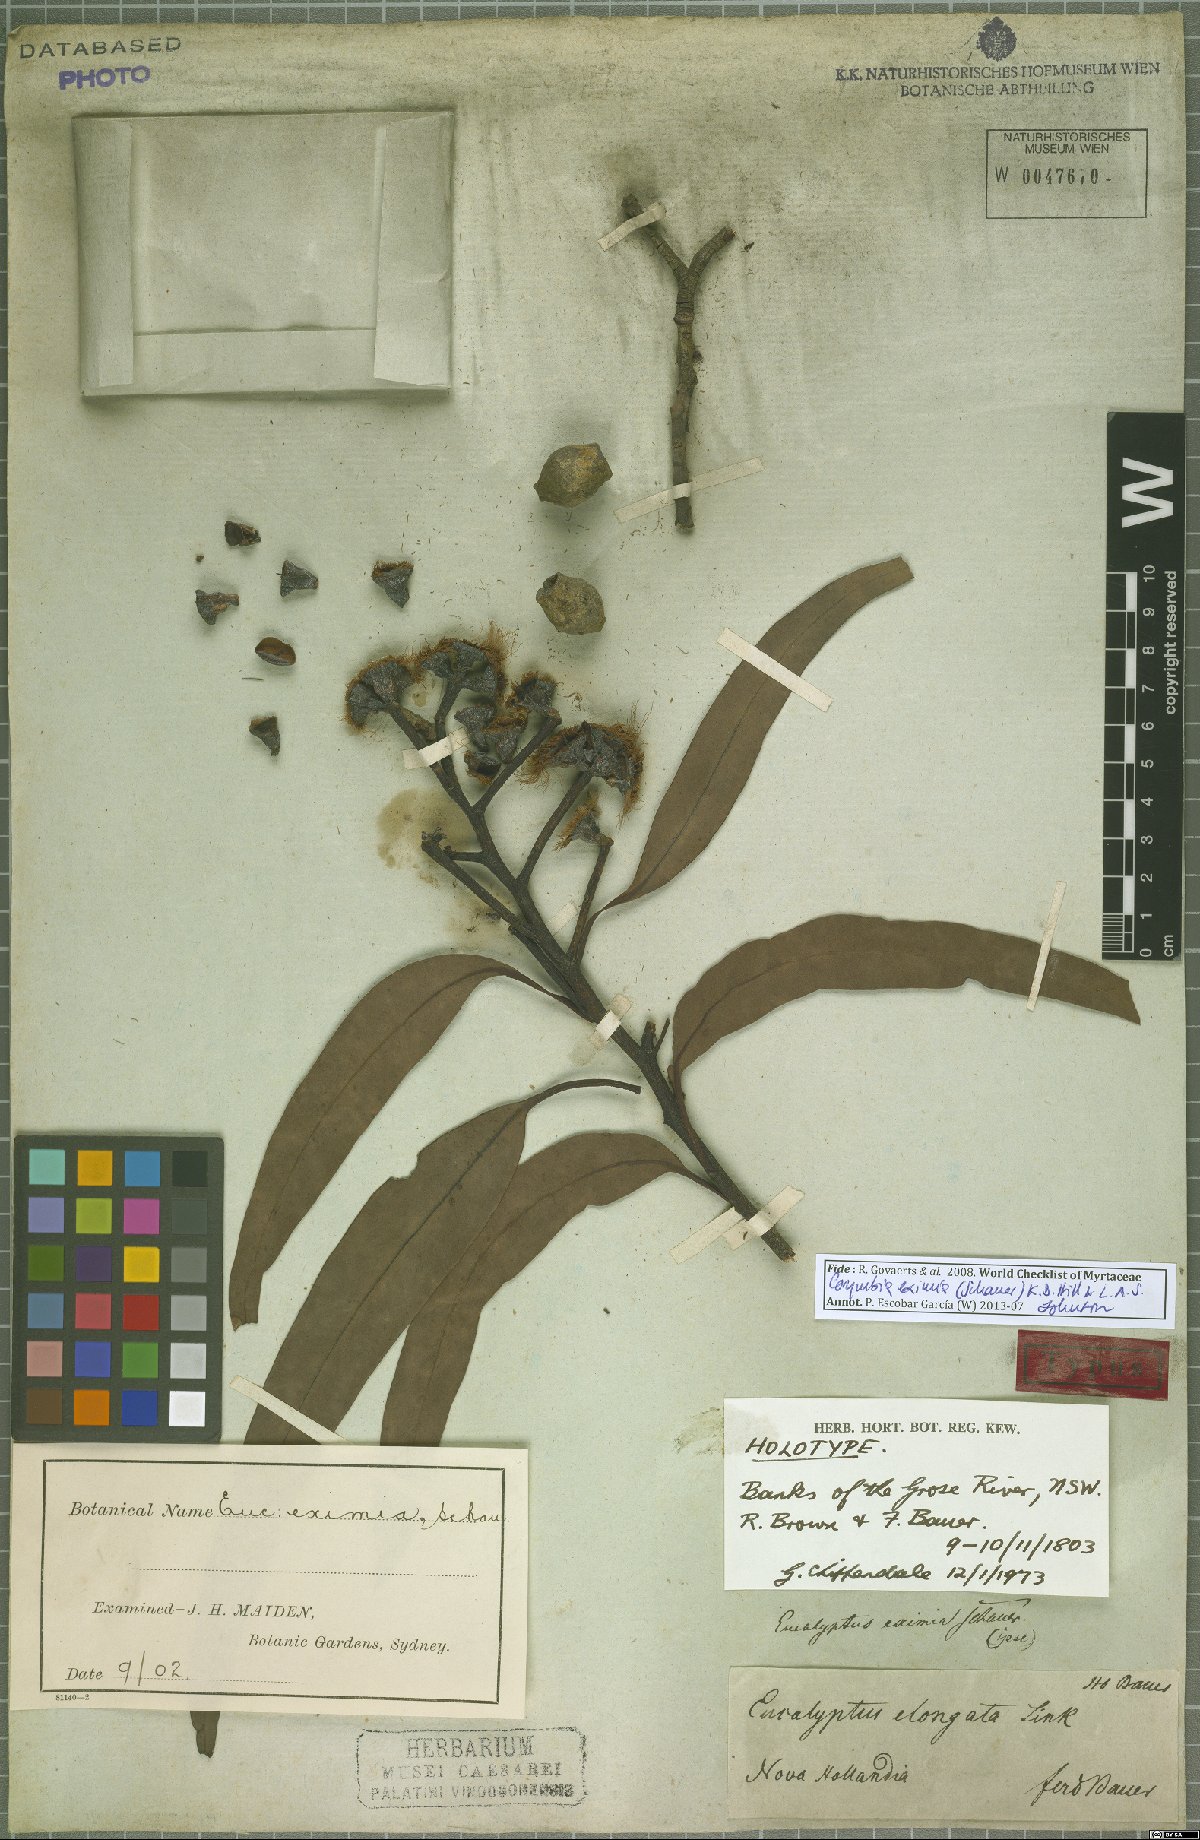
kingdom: Plantae
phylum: Tracheophyta
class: Magnoliopsida
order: Myrtales
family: Myrtaceae
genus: Corymbia
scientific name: Corymbia eximia
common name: Yellow bloodwood
